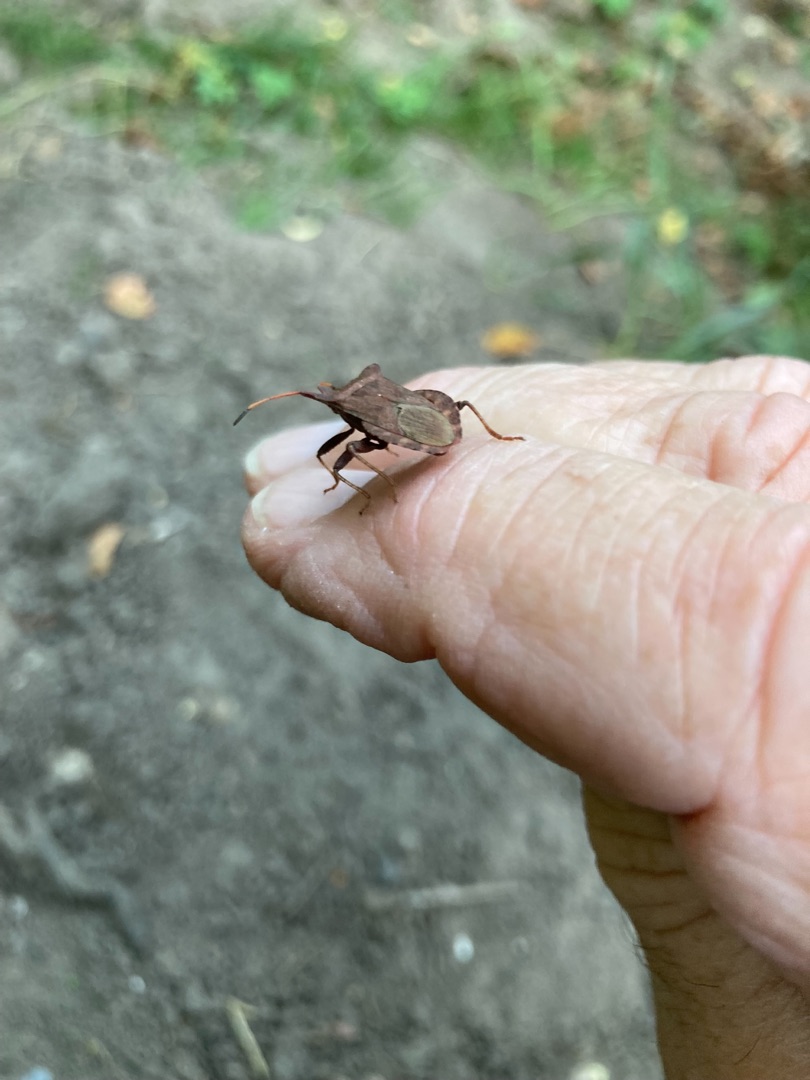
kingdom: Animalia
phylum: Arthropoda
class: Insecta
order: Hemiptera
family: Coreidae
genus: Coreus
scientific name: Coreus marginatus
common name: Skræppetæge
